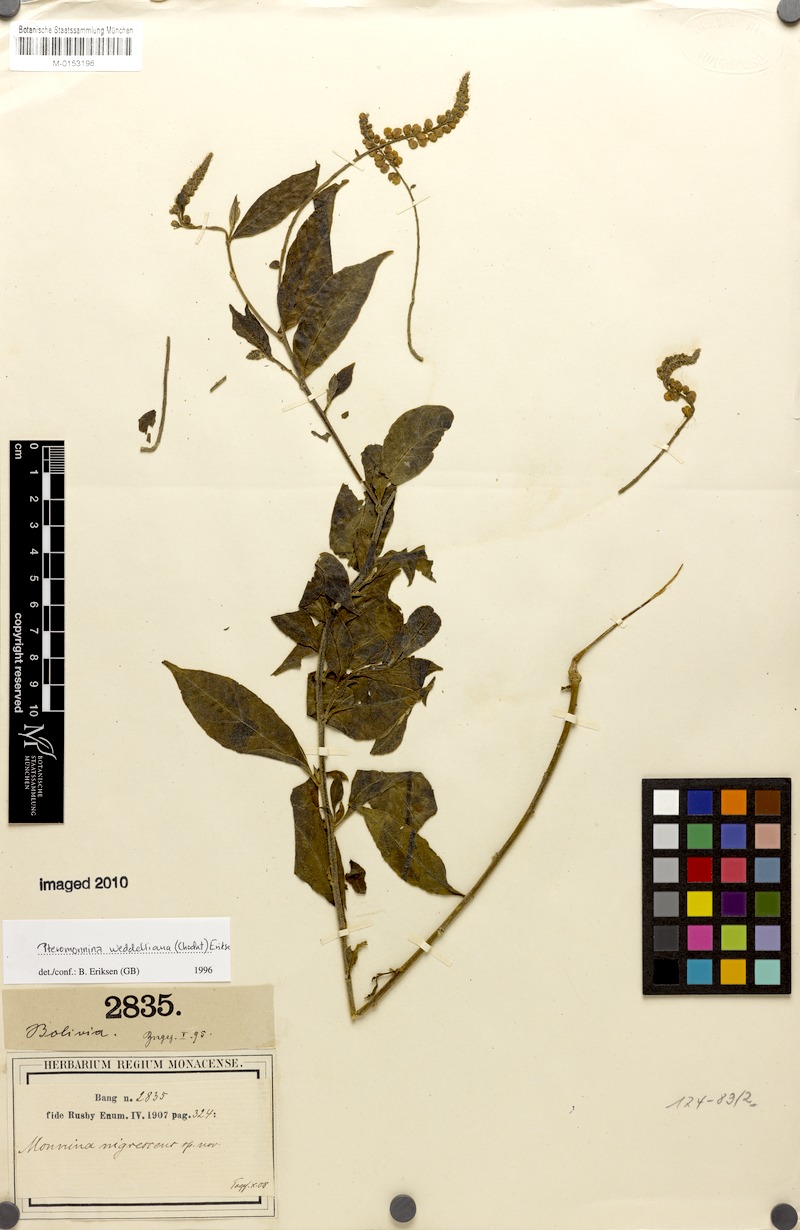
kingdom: Plantae
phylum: Tracheophyta
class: Magnoliopsida
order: Fabales
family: Polygalaceae
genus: Monnina
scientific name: Monnina weddelliana
